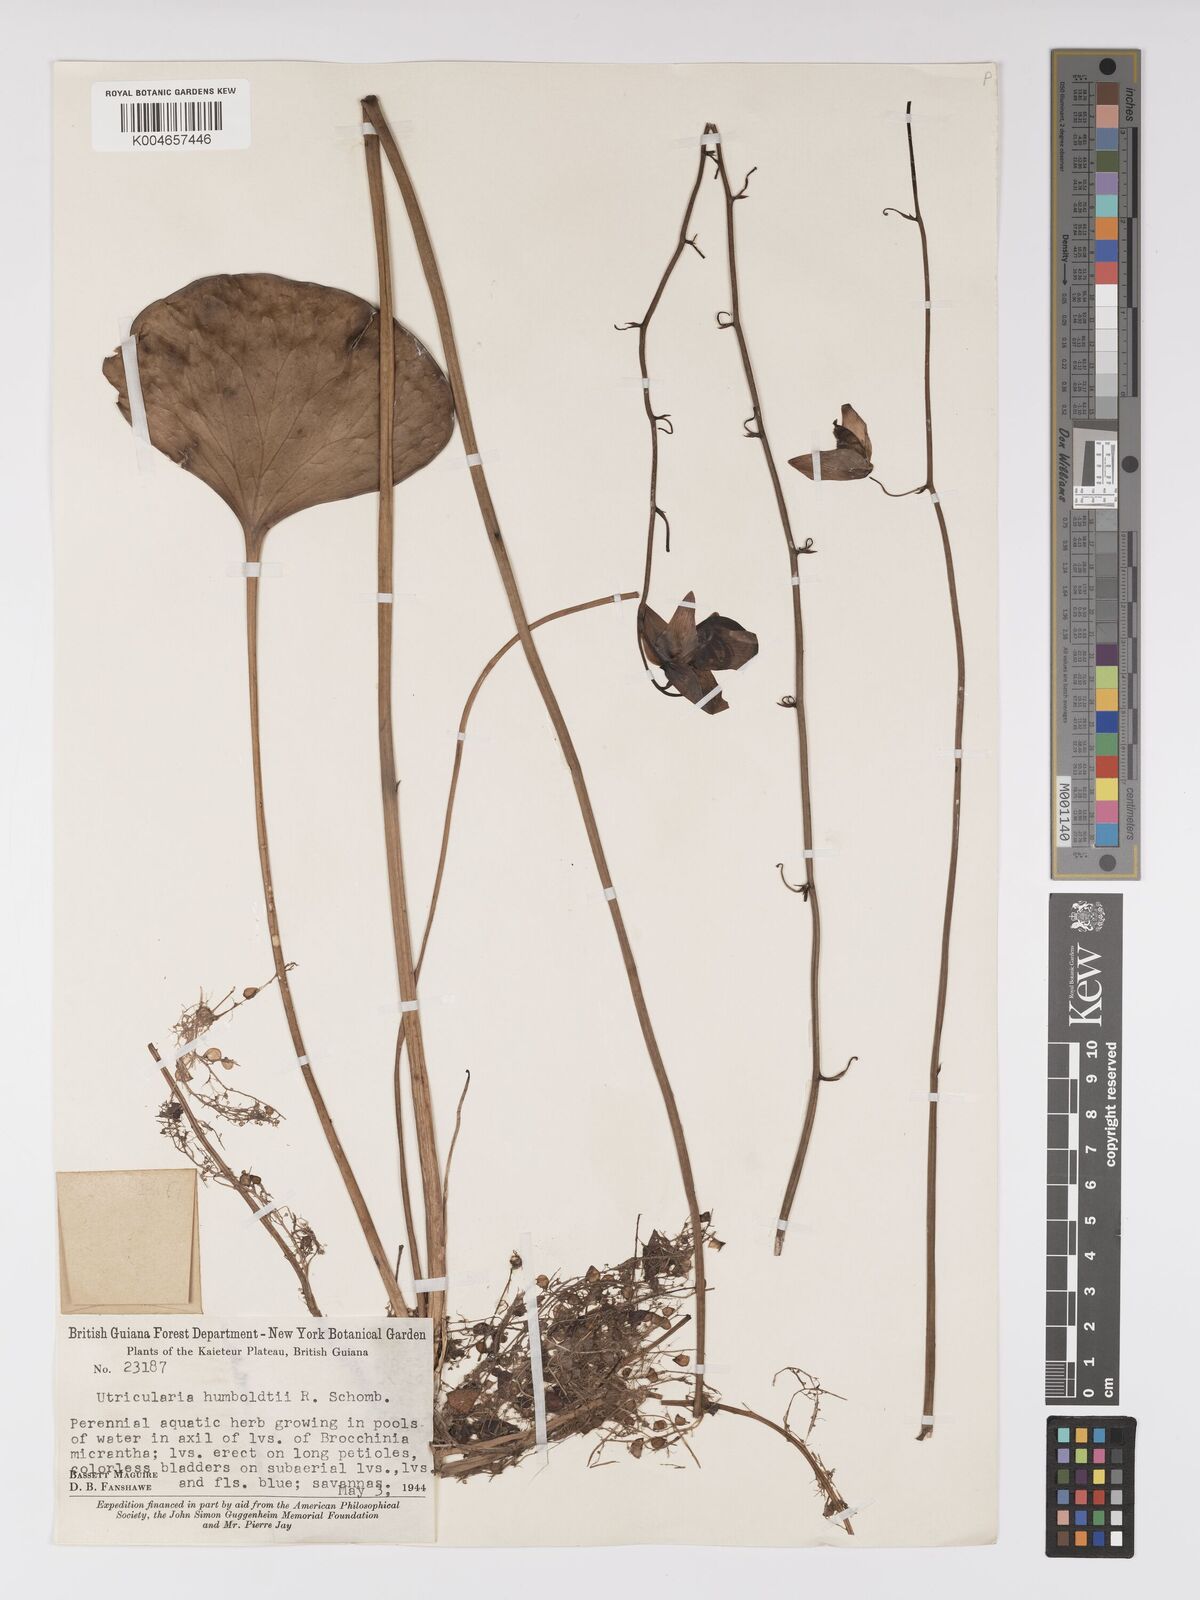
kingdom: Plantae
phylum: Tracheophyta
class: Magnoliopsida
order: Lamiales
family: Lentibulariaceae
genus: Utricularia
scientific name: Utricularia humboldtii
